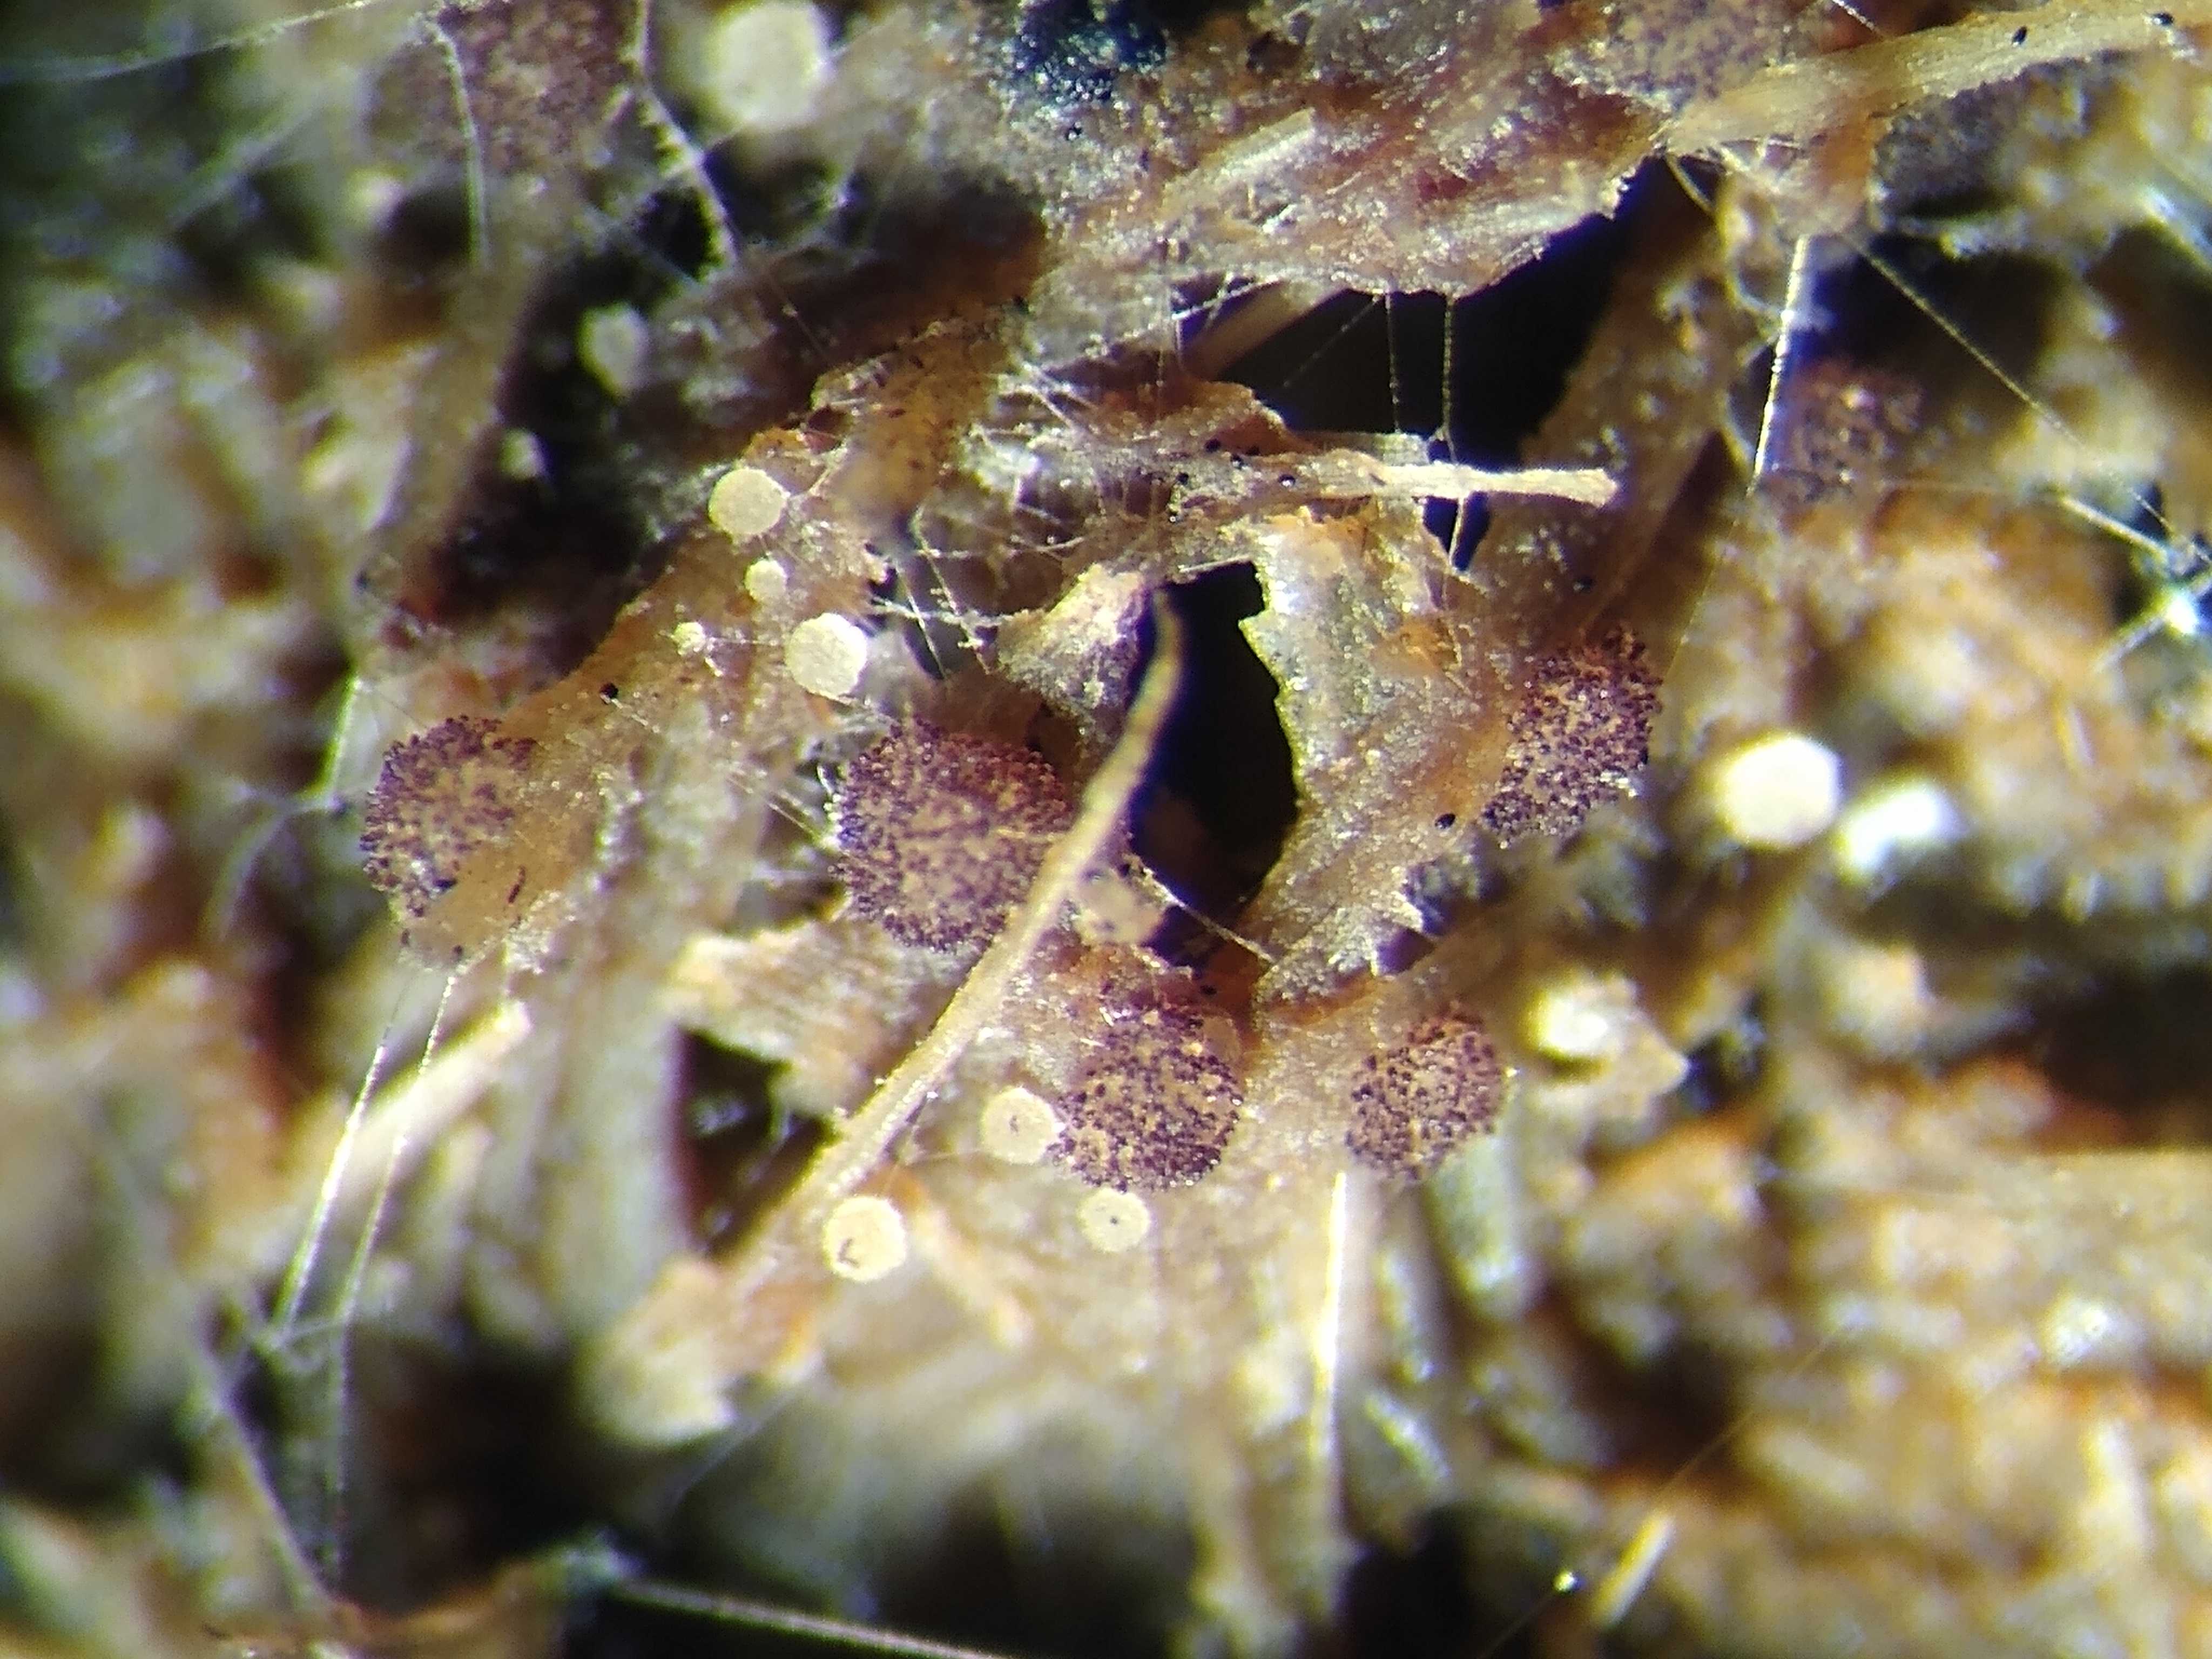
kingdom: Fungi
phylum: Ascomycota
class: Pezizomycetes
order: Pezizales
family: Ascobolaceae
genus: Saccobolus
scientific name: Saccobolus truncatus
